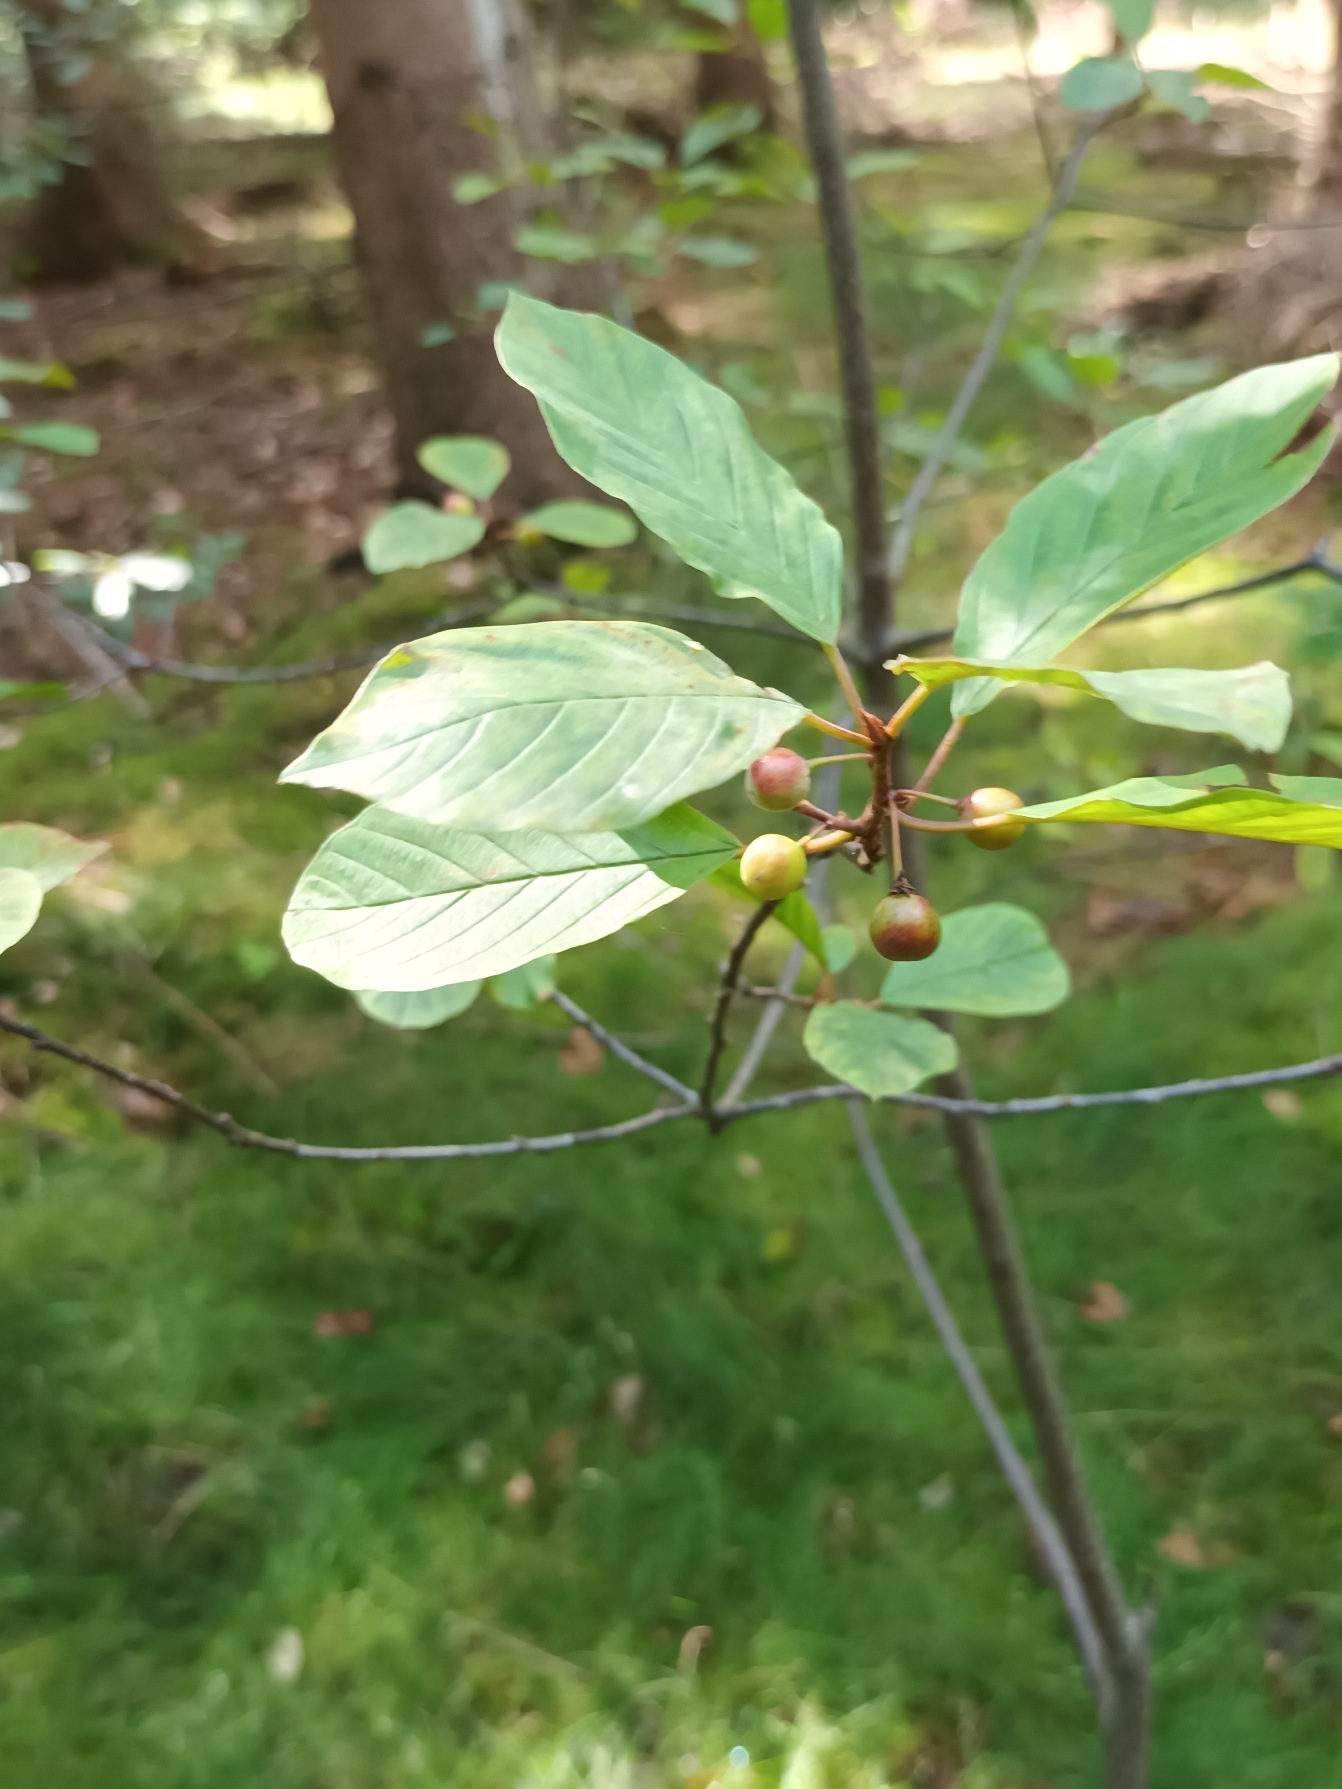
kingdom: Plantae
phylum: Tracheophyta
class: Magnoliopsida
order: Rosales
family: Rhamnaceae
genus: Frangula
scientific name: Frangula alnus
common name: Tørst
